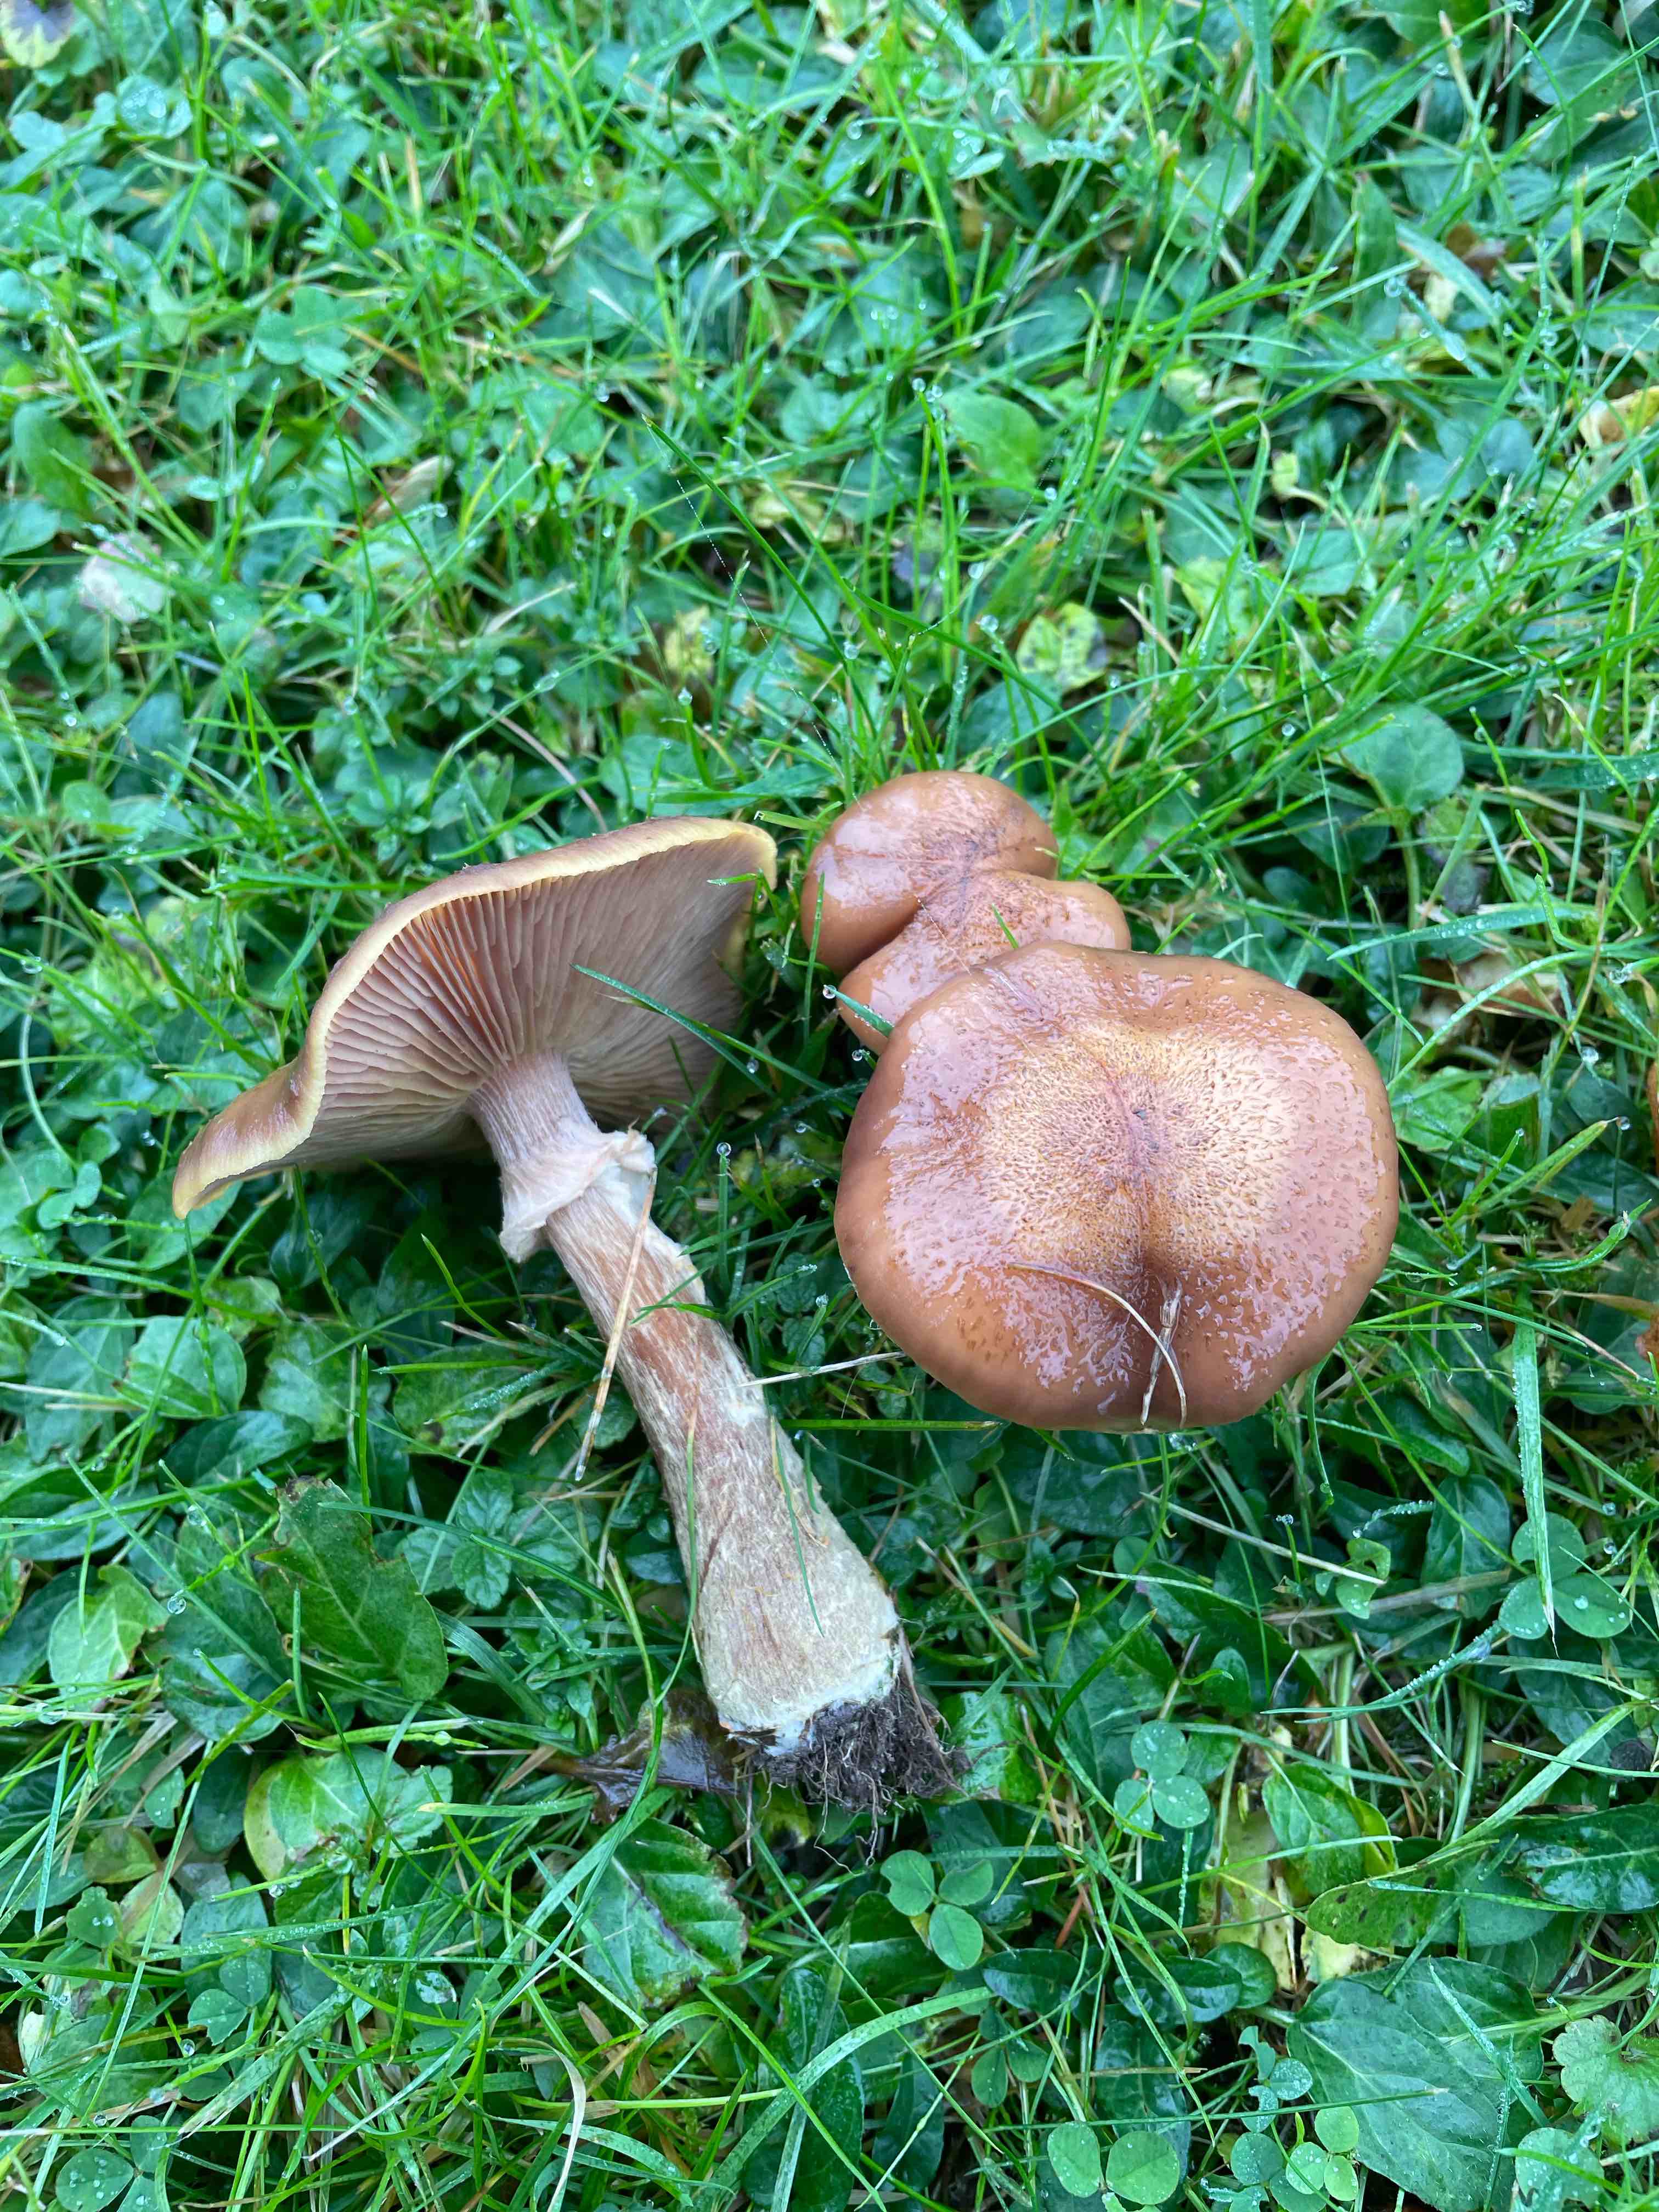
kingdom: Fungi
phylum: Basidiomycota
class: Agaricomycetes
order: Agaricales
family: Physalacriaceae
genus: Armillaria
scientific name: Armillaria lutea
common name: køllestokket honningsvamp
